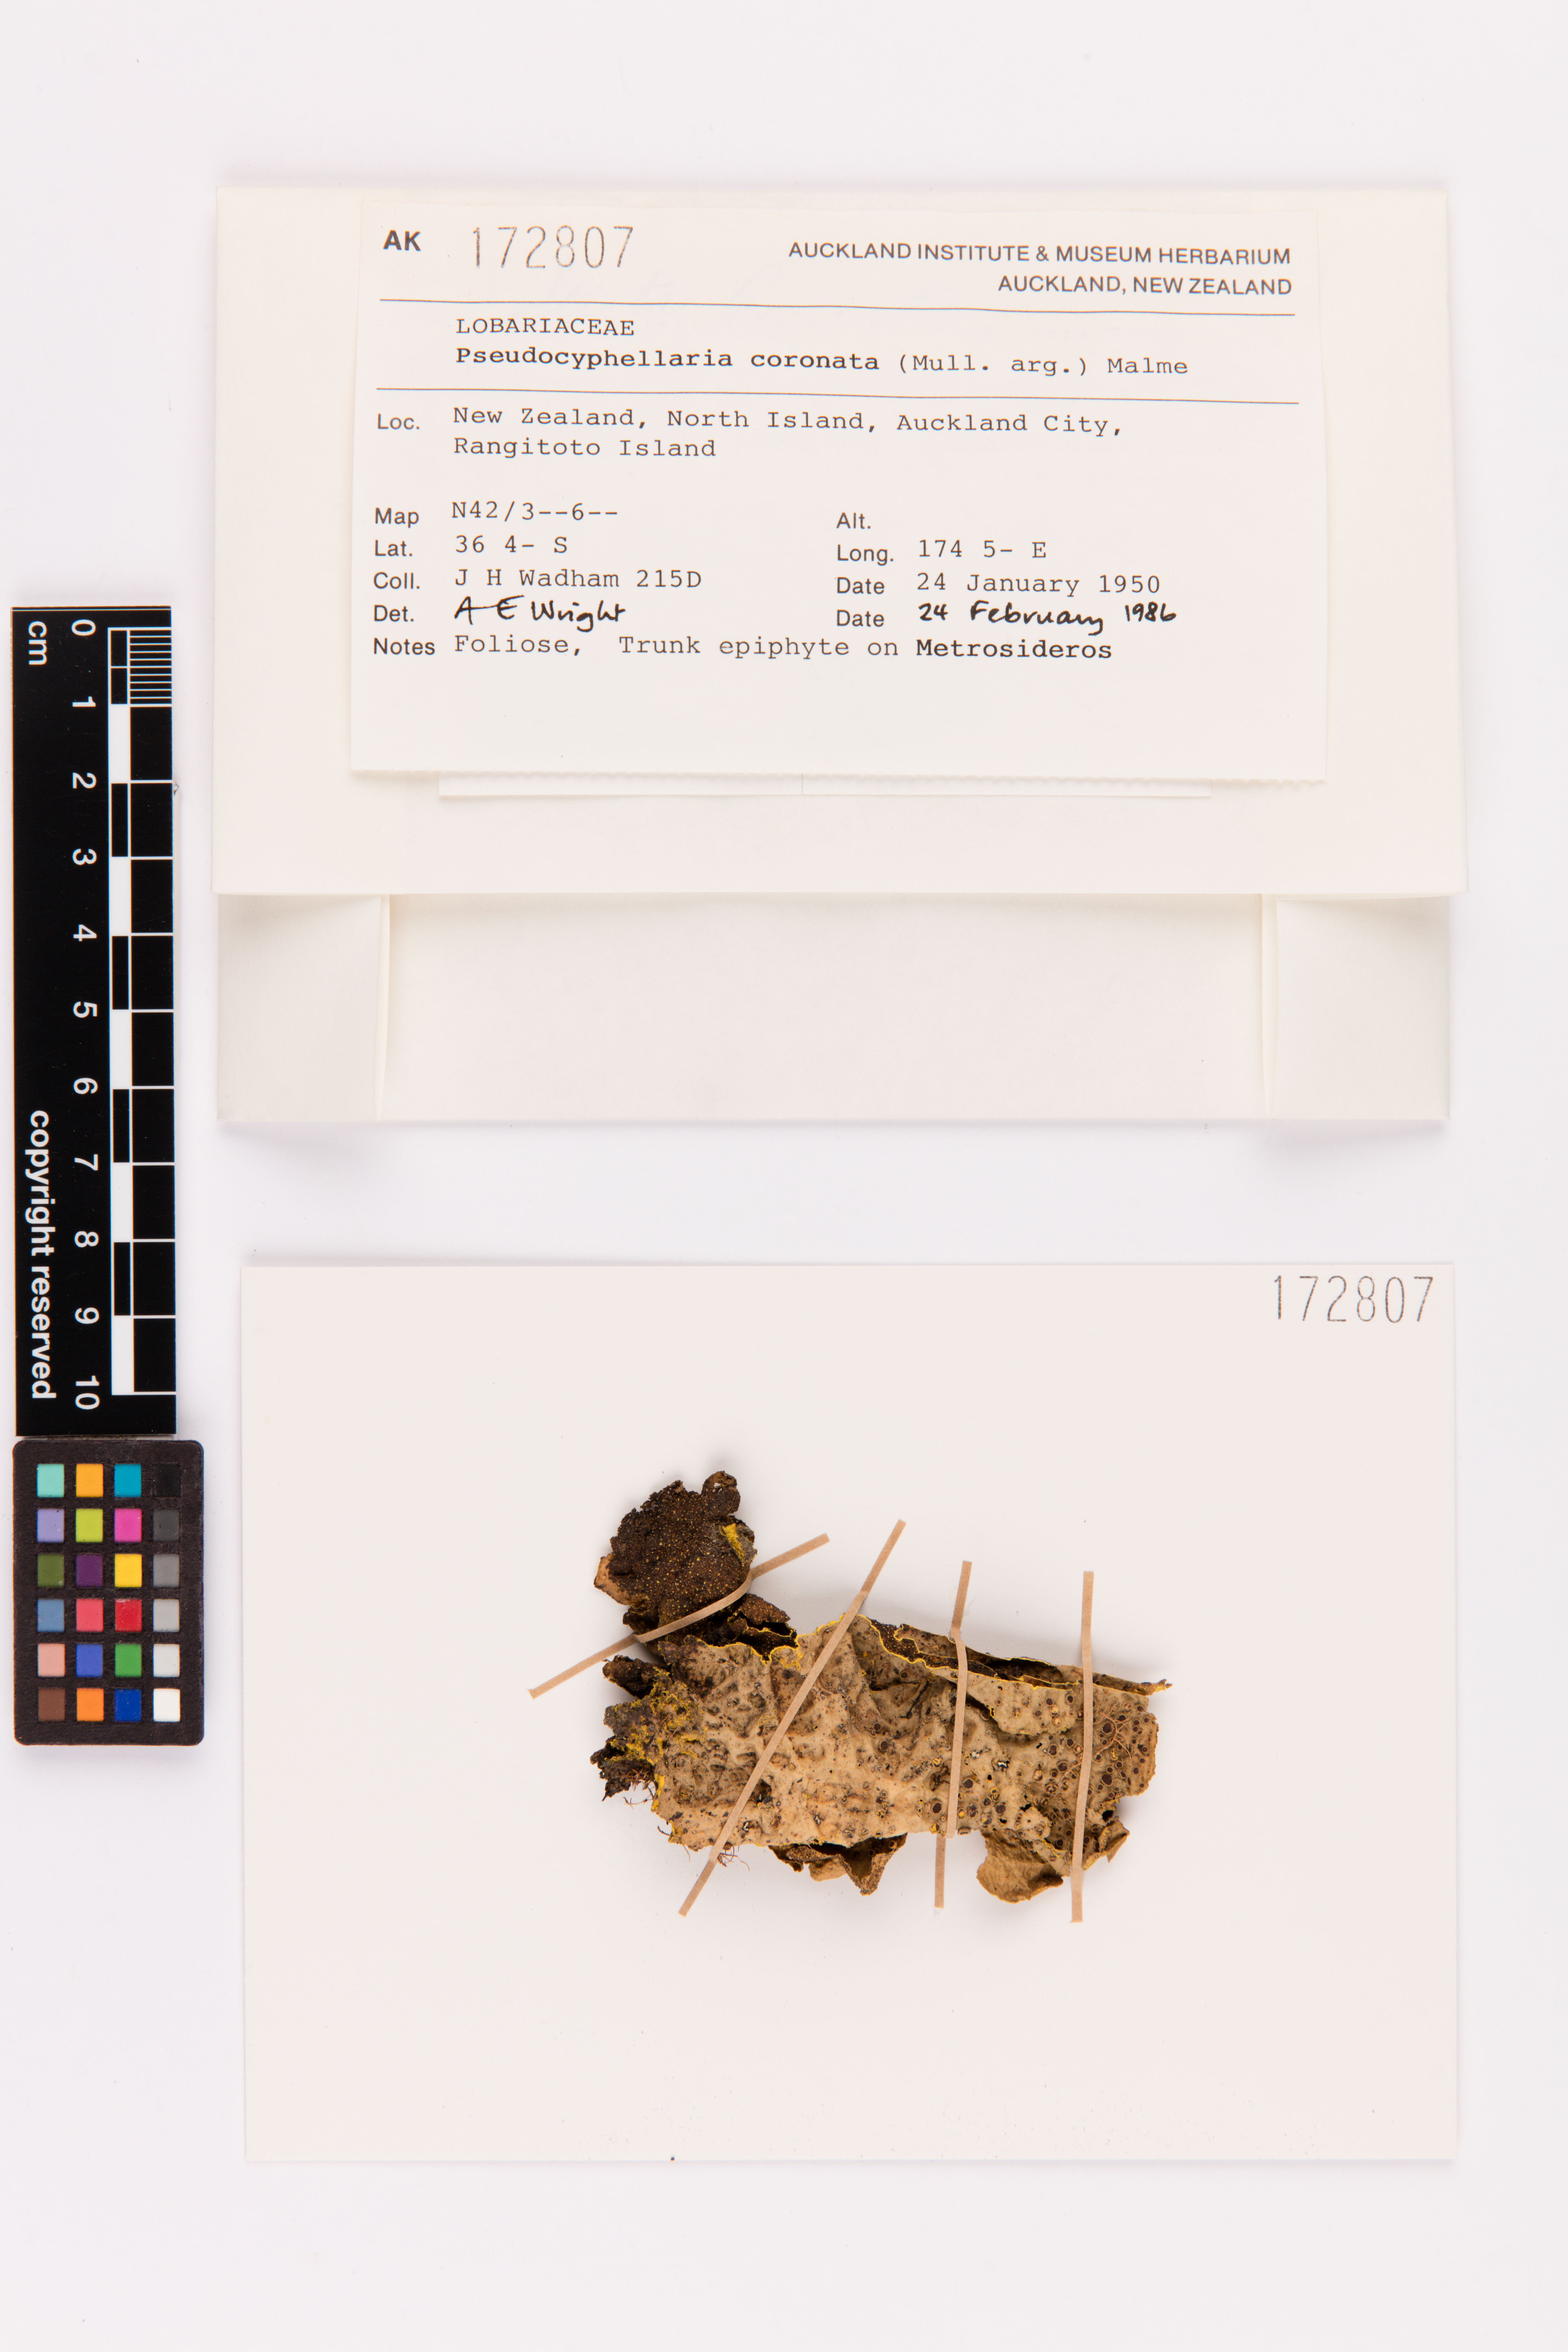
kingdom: Fungi
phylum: Ascomycota
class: Lecanoromycetes
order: Peltigerales
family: Lobariaceae
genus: Yarrumia
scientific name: Yarrumia coronata
